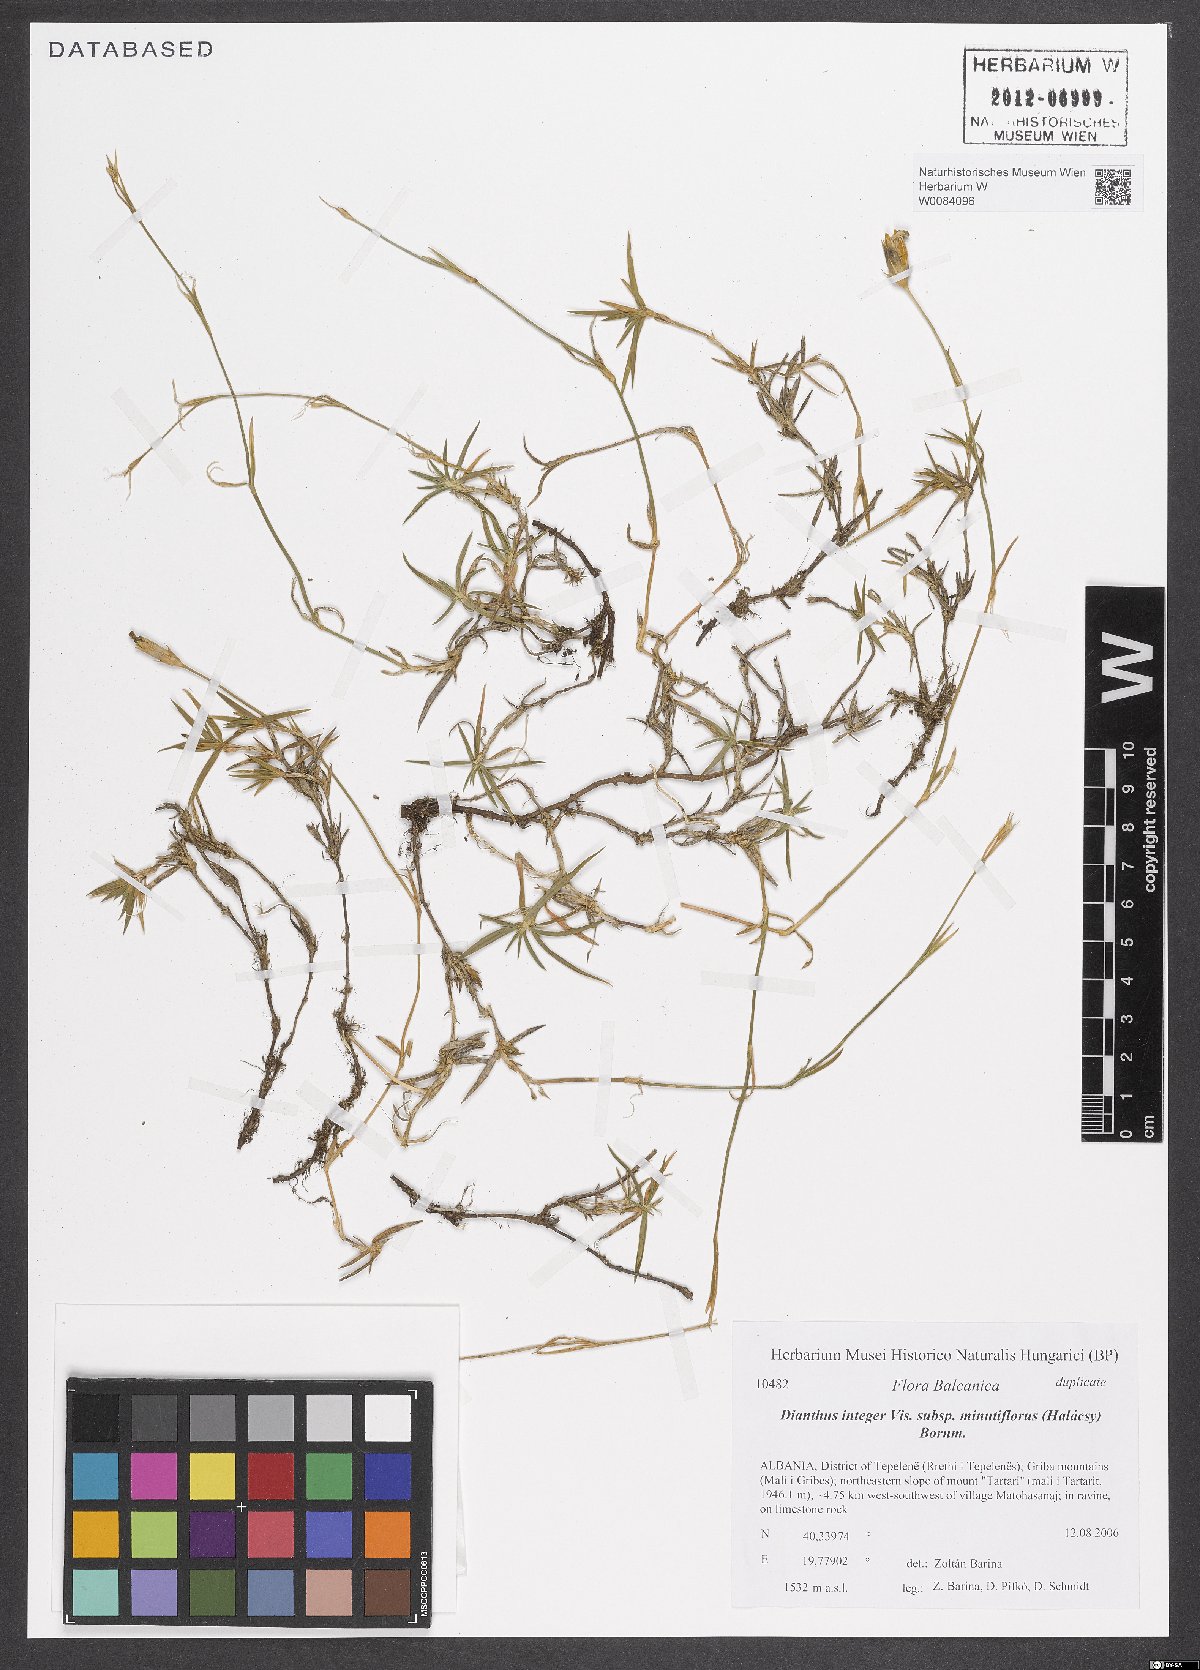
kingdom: Plantae
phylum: Tracheophyta
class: Magnoliopsida
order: Caryophyllales
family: Caryophyllaceae
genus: Dianthus
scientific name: Dianthus integer
